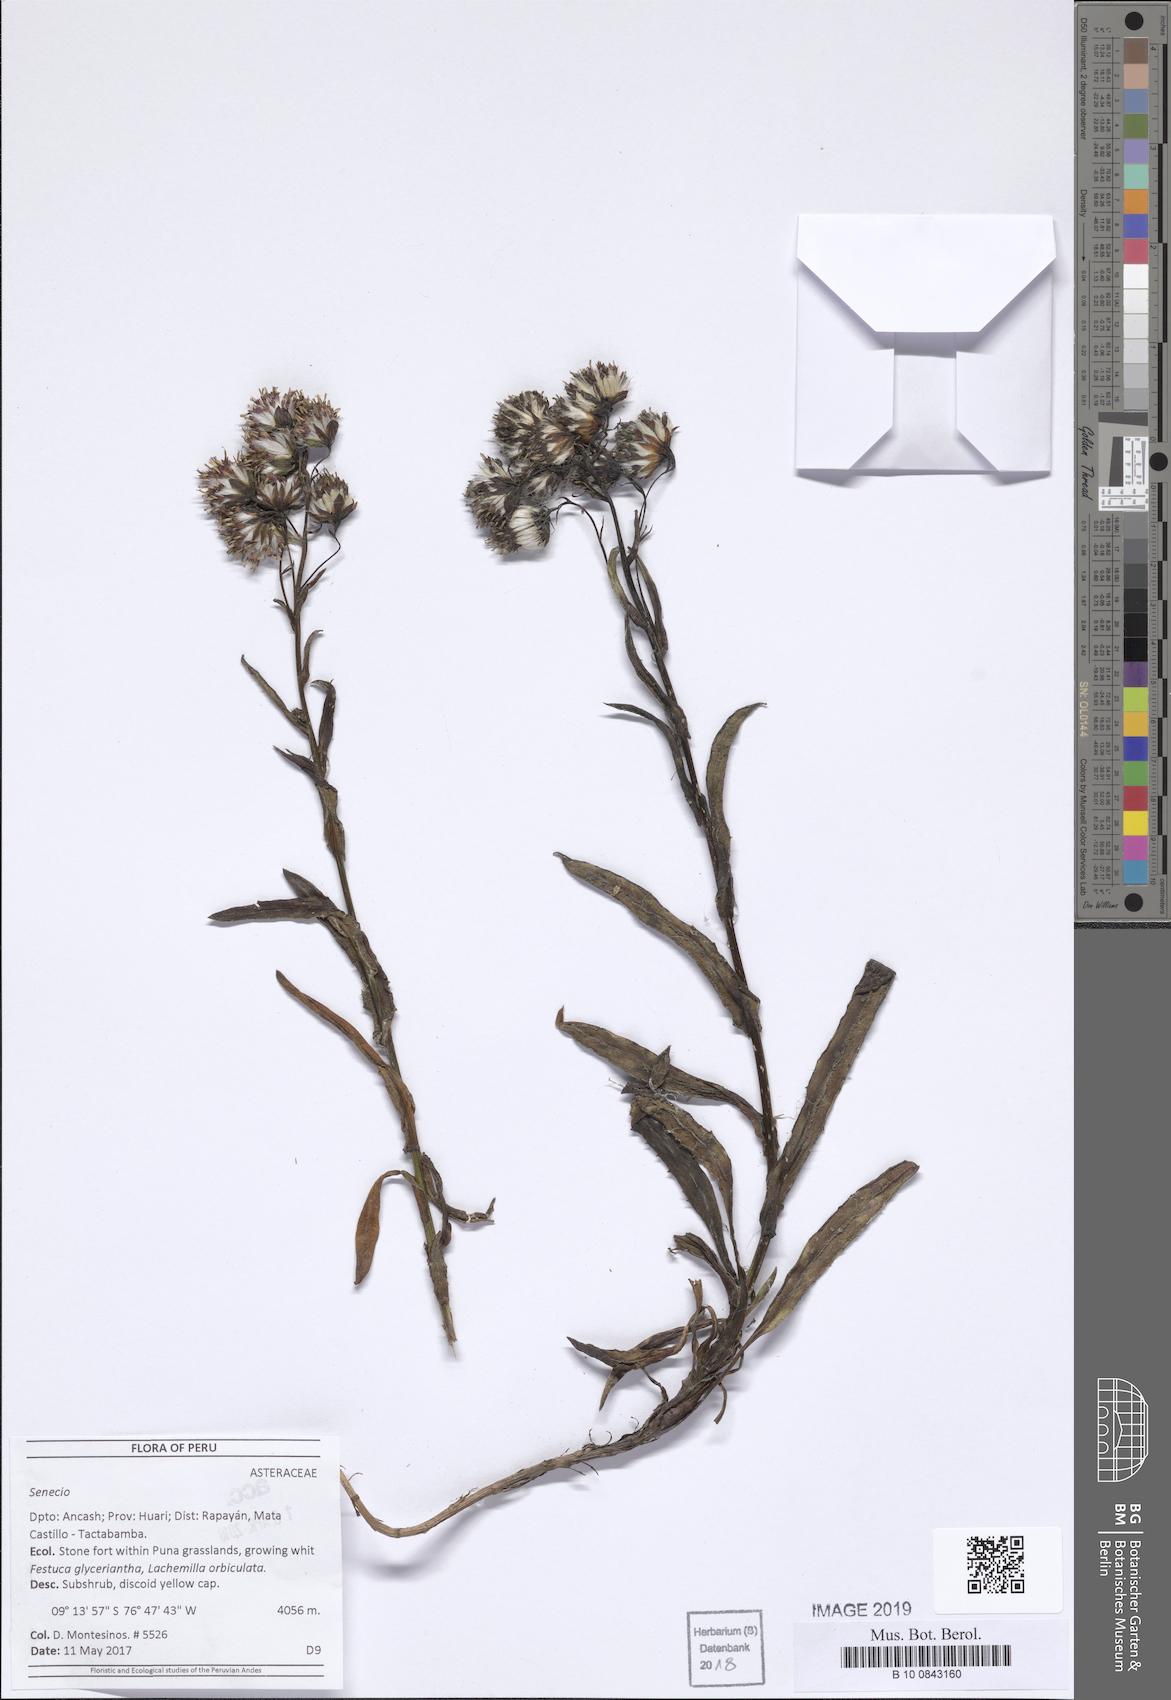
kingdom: Plantae
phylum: Tracheophyta
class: Magnoliopsida
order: Asterales
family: Asteraceae
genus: Senecio
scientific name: Senecio arachnolomus
